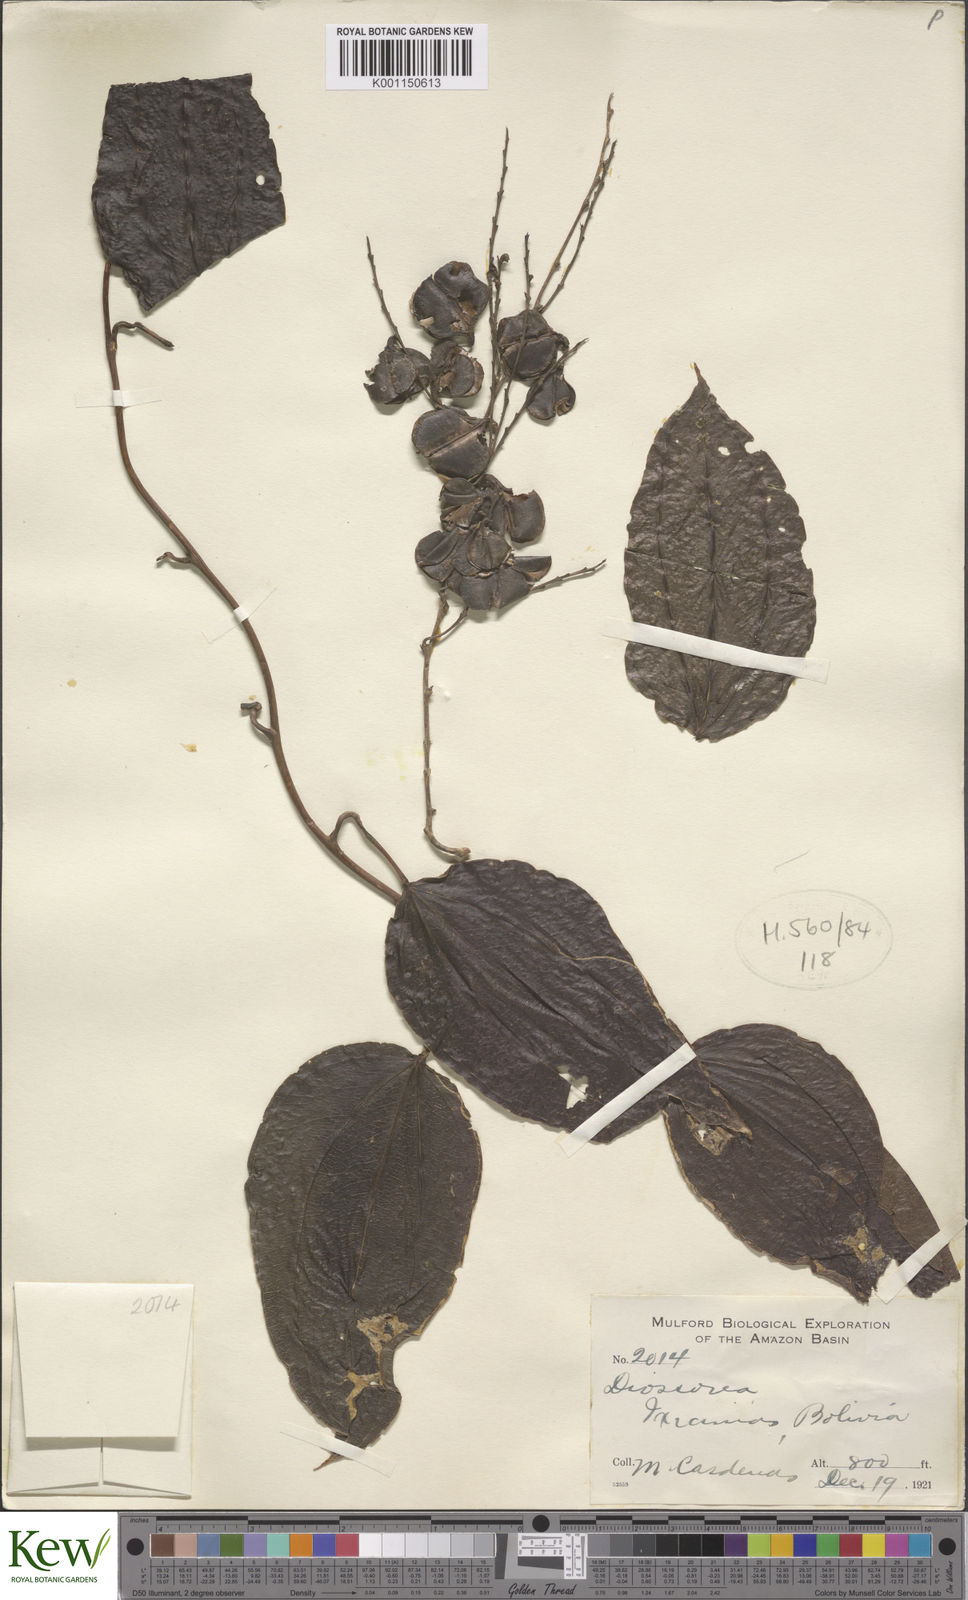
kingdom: Plantae
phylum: Tracheophyta
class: Liliopsida
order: Dioscoreales
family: Dioscoreaceae
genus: Dioscorea
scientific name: Dioscorea
